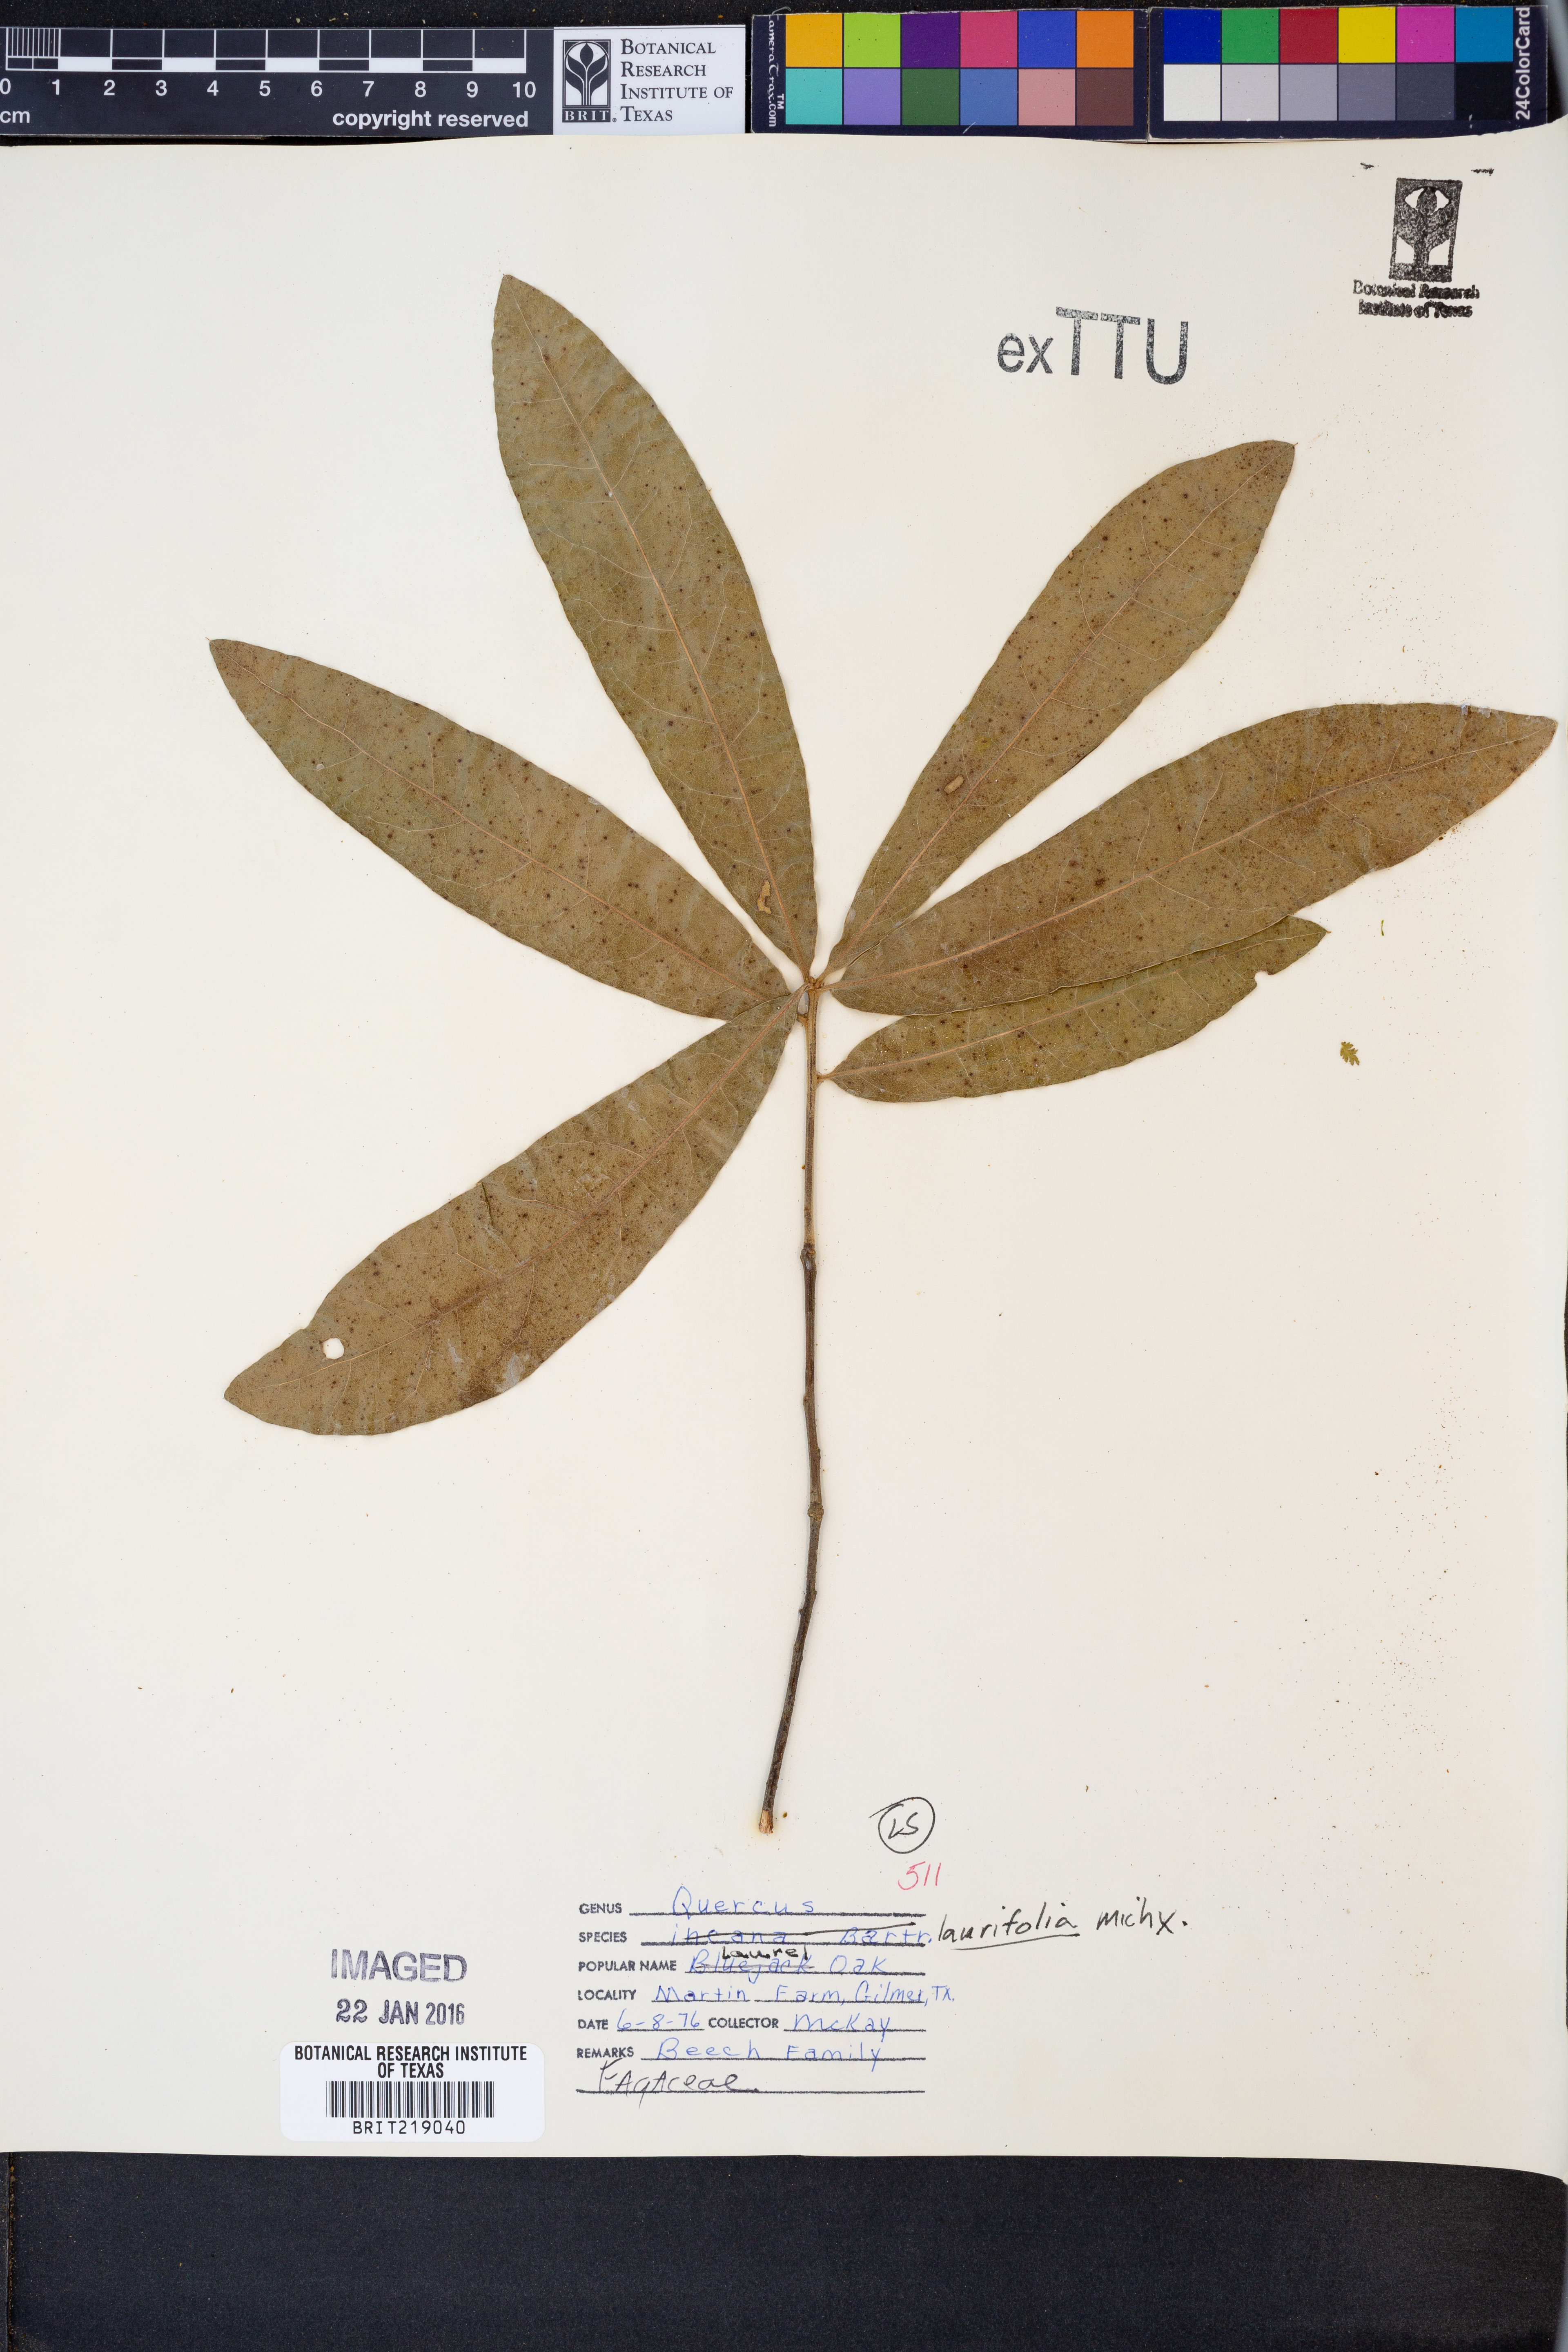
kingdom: Plantae
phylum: Tracheophyta
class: Magnoliopsida
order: Fagales
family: Fagaceae
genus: Quercus
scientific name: Quercus laurifolia
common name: Swamp laurel oak
